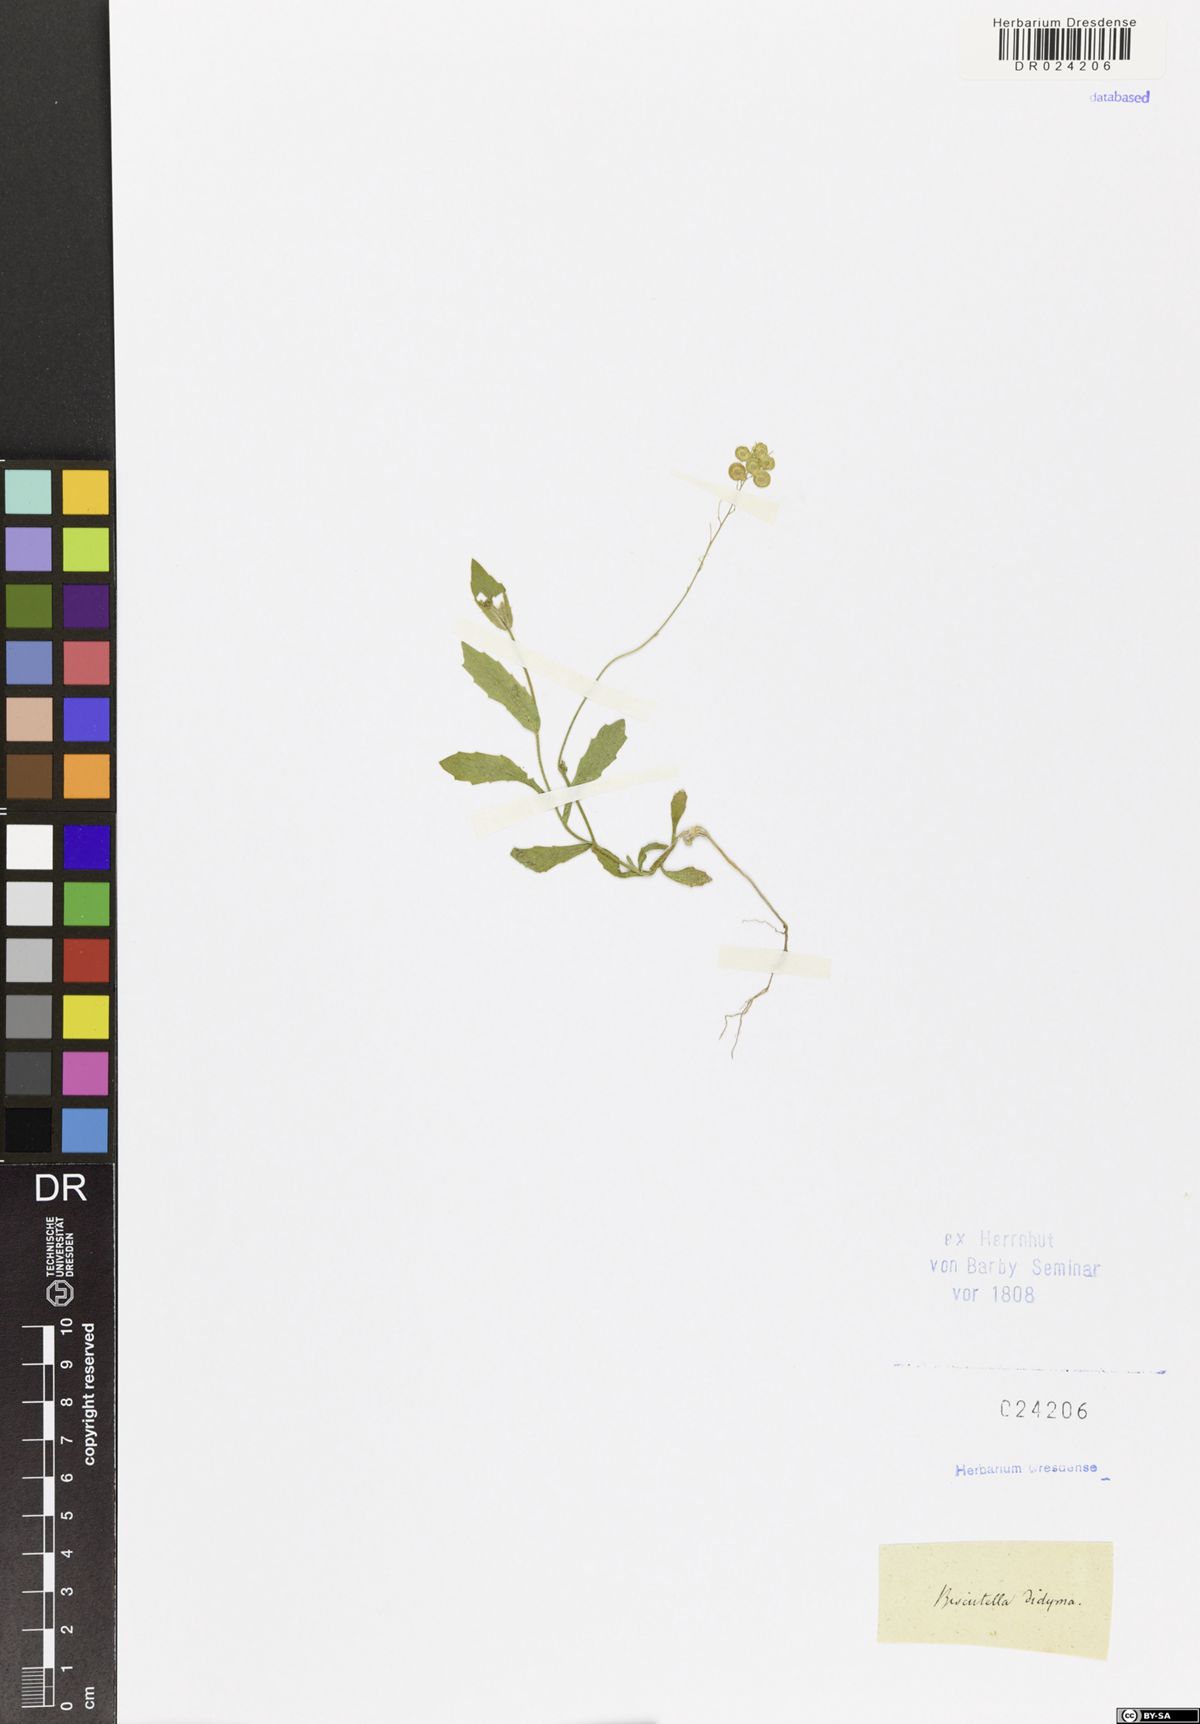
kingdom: Plantae
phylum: Tracheophyta
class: Magnoliopsida
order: Brassicales
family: Brassicaceae
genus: Biscutella
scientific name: Biscutella didyma
